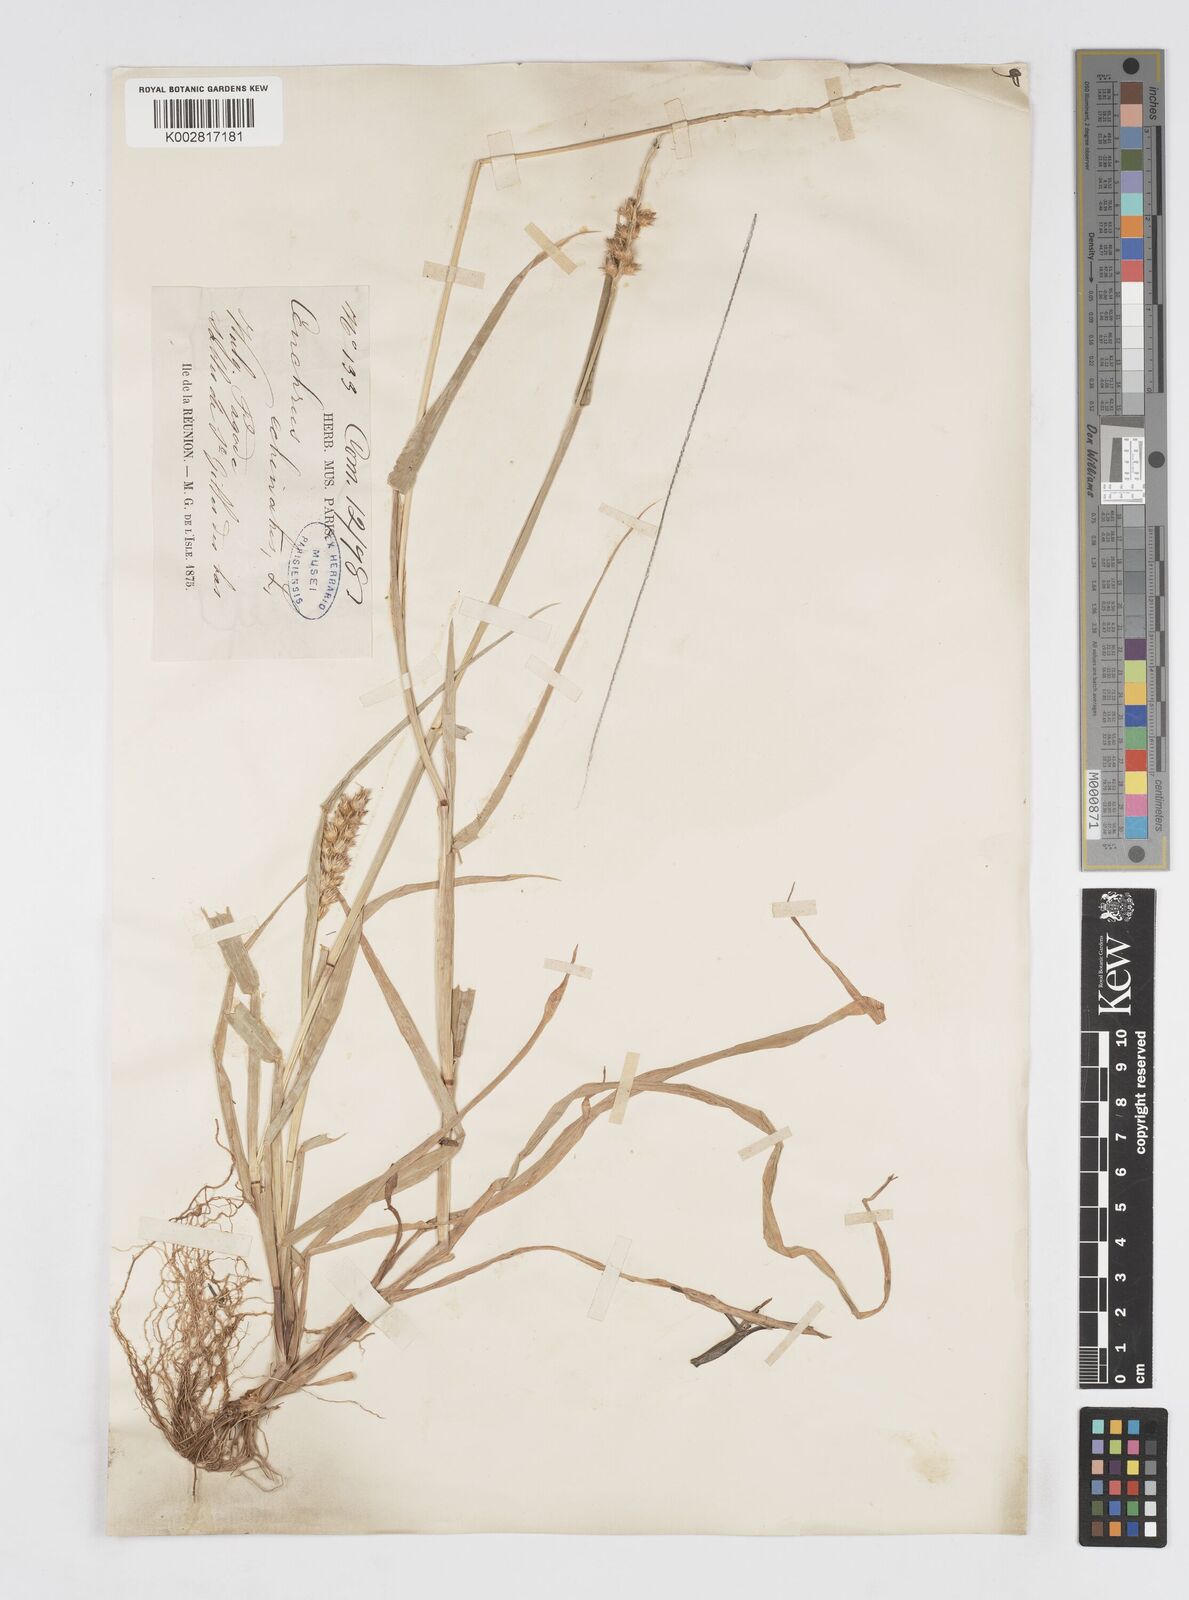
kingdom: Plantae
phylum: Tracheophyta
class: Liliopsida
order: Poales
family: Poaceae
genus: Cenchrus
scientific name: Cenchrus
